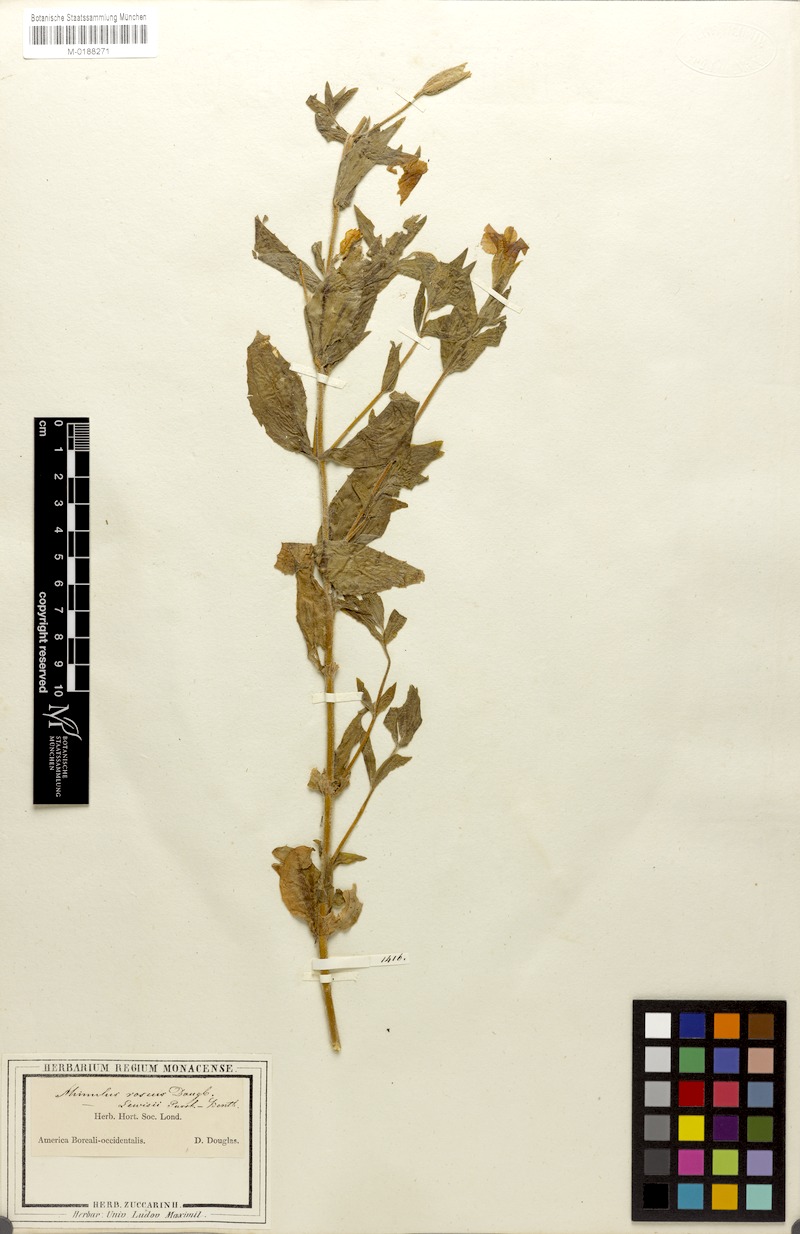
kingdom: Plantae
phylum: Tracheophyta
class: Magnoliopsida
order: Lamiales
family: Phrymaceae
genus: Erythranthe
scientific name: Erythranthe lewisii
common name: Lewis's monkey-flower
